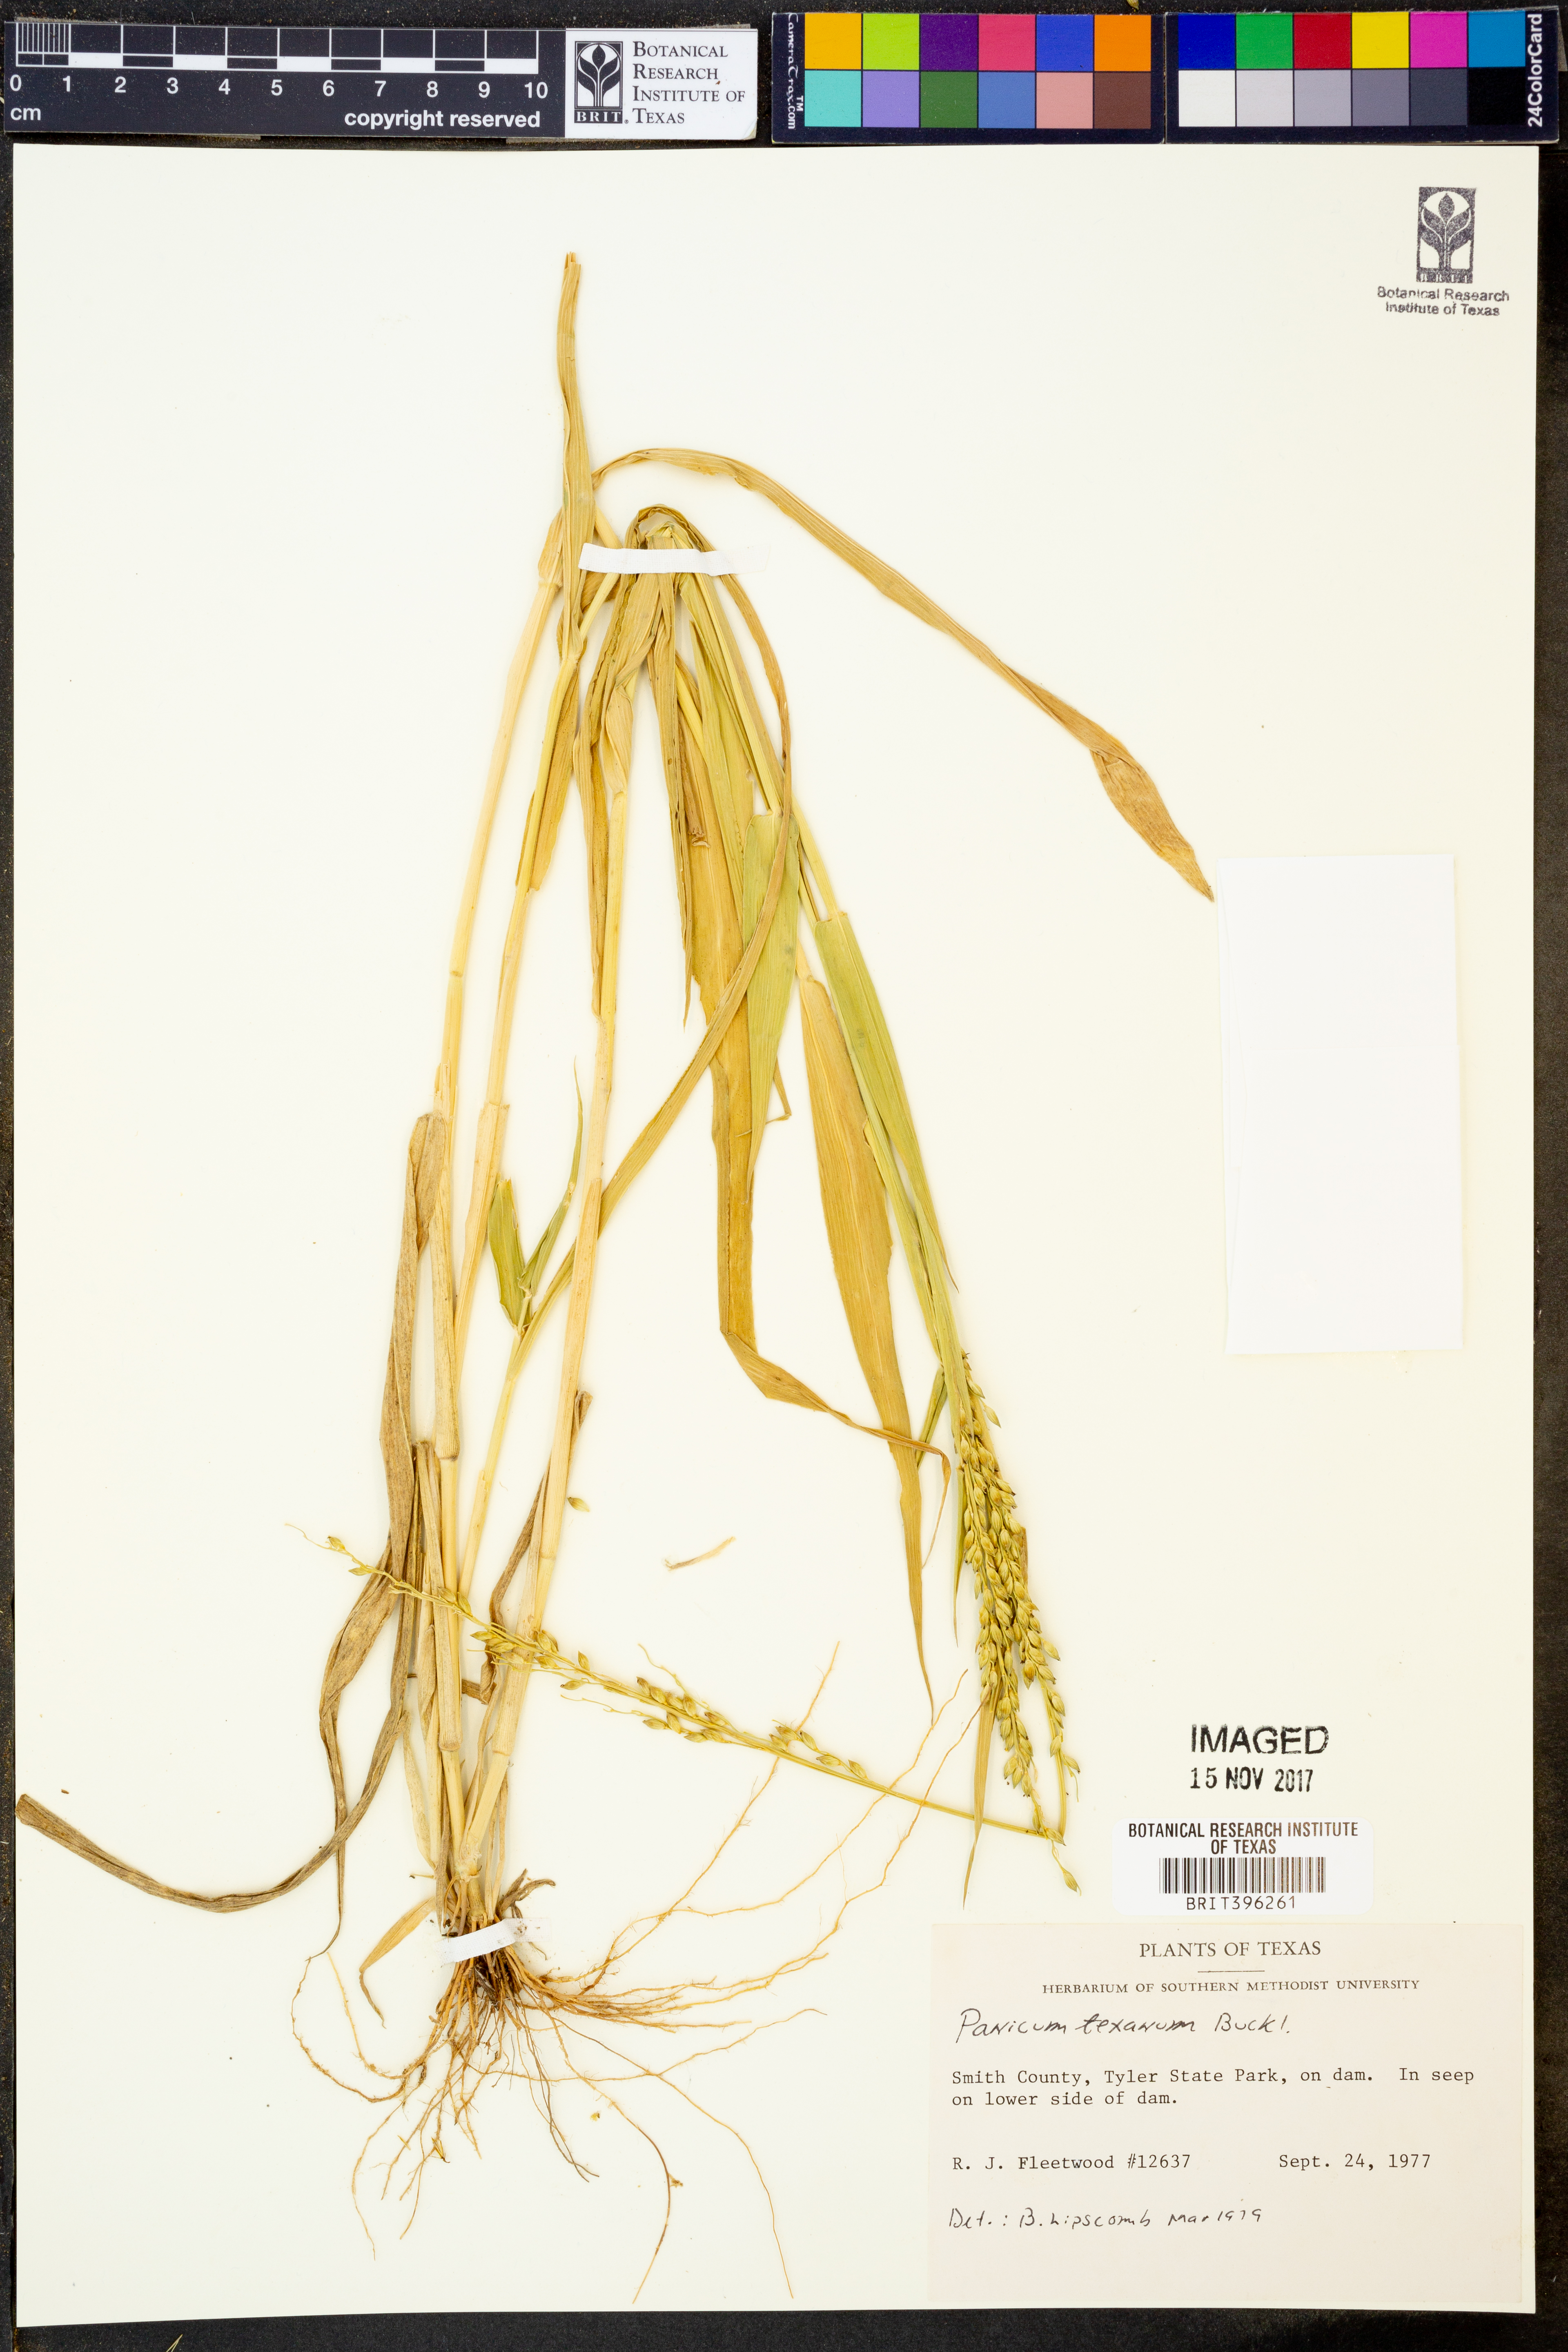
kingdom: Plantae
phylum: Tracheophyta
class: Liliopsida
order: Poales
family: Poaceae
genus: Urochloa
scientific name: Urochloa texana
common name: Texas millet
